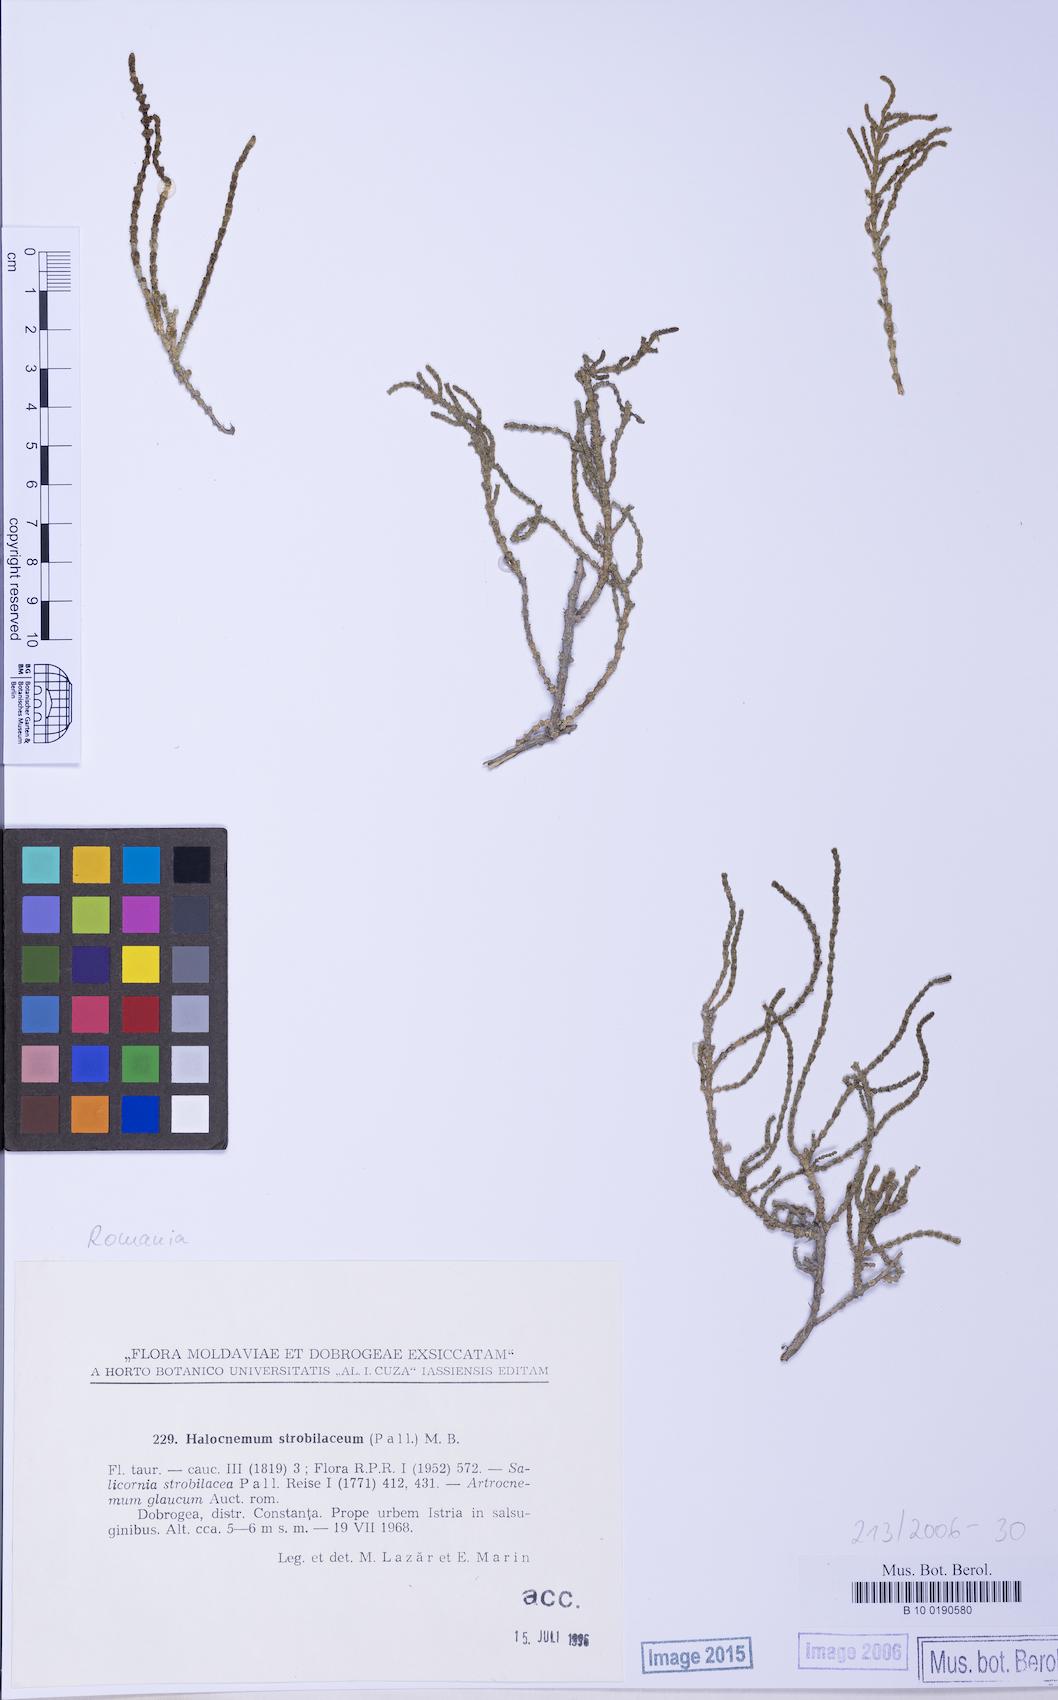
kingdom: Plantae
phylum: Tracheophyta
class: Magnoliopsida
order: Caryophyllales
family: Amaranthaceae
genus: Halocnemum
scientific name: Halocnemum strobilaceum
